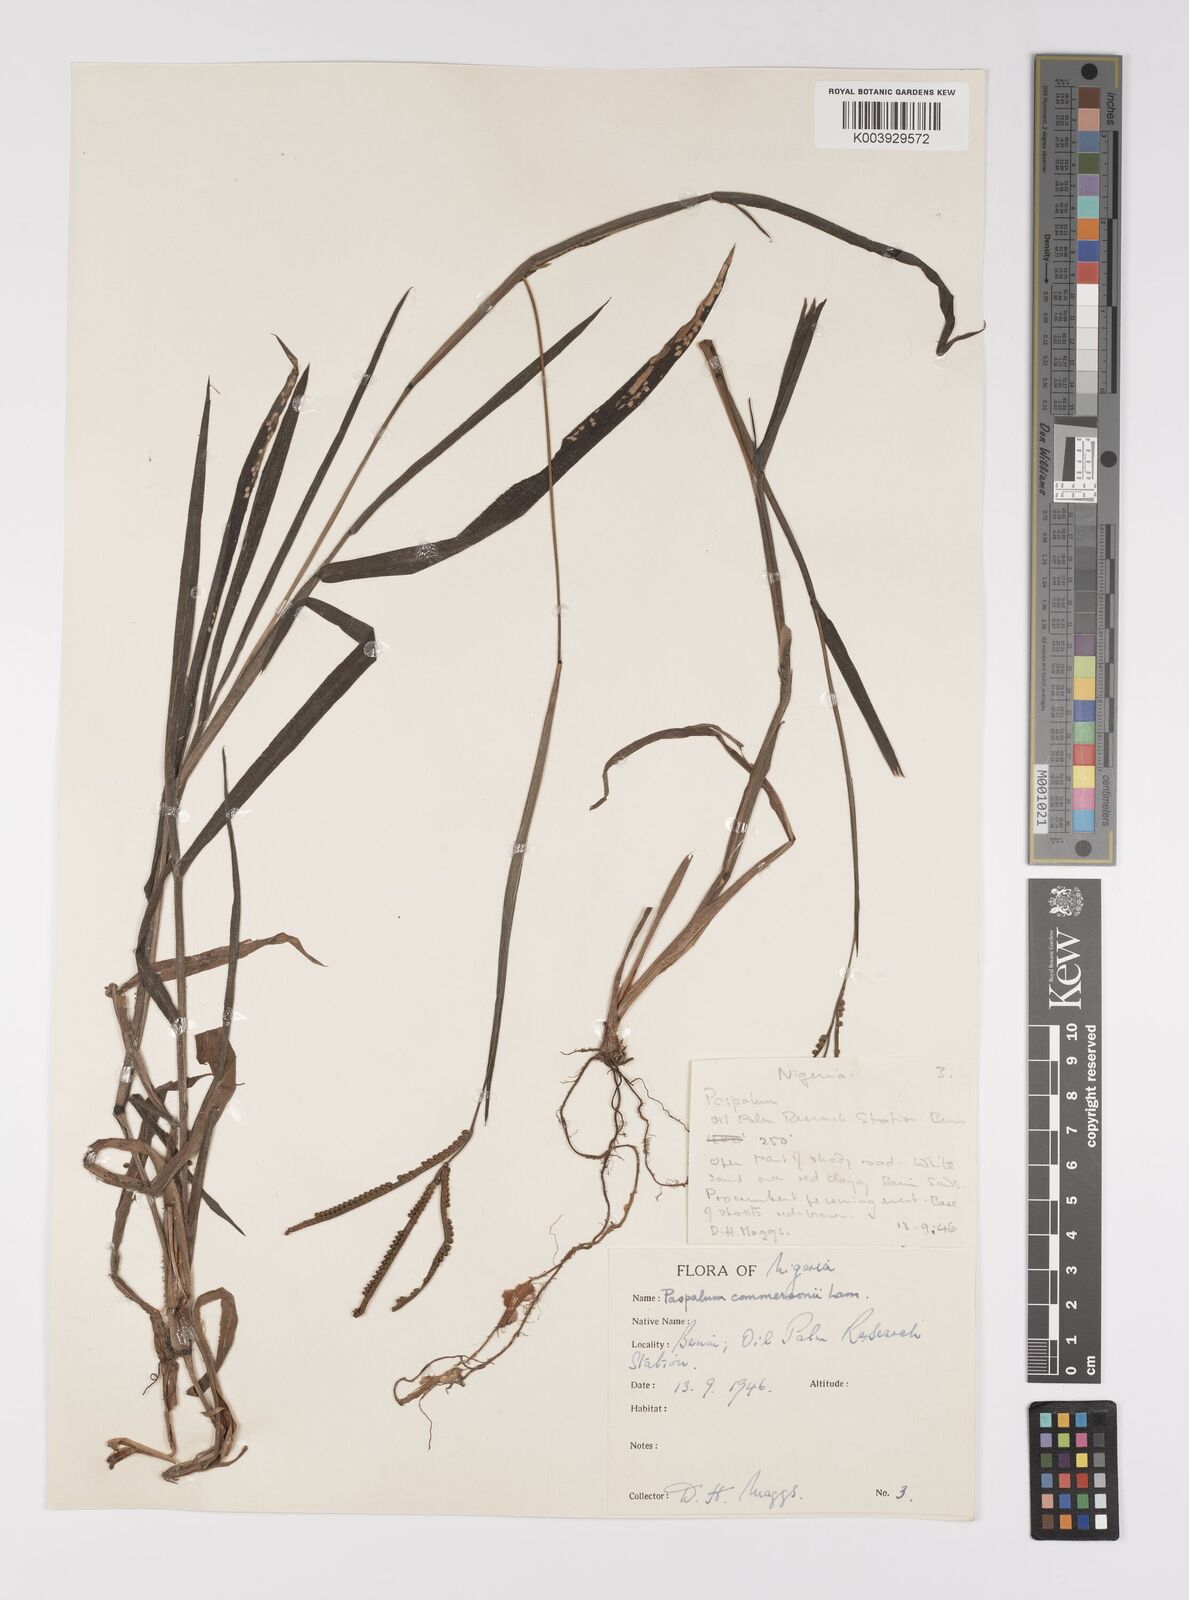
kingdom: Plantae
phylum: Tracheophyta
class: Liliopsida
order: Poales
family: Poaceae
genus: Paspalum
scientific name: Paspalum scrobiculatum
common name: Kodo millet
